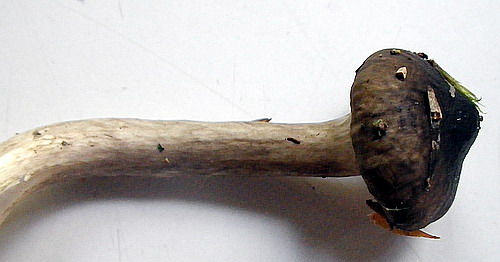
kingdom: Fungi
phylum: Basidiomycota
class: Agaricomycetes
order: Agaricales
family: Hygrophoraceae
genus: Hygrophorus
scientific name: Hygrophorus olivaceoalbus
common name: hvidbrun sneglehat
